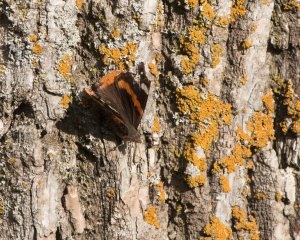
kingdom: Animalia
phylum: Arthropoda
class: Insecta
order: Lepidoptera
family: Nymphalidae
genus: Vanessa
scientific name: Vanessa atalanta
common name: Red Admiral
